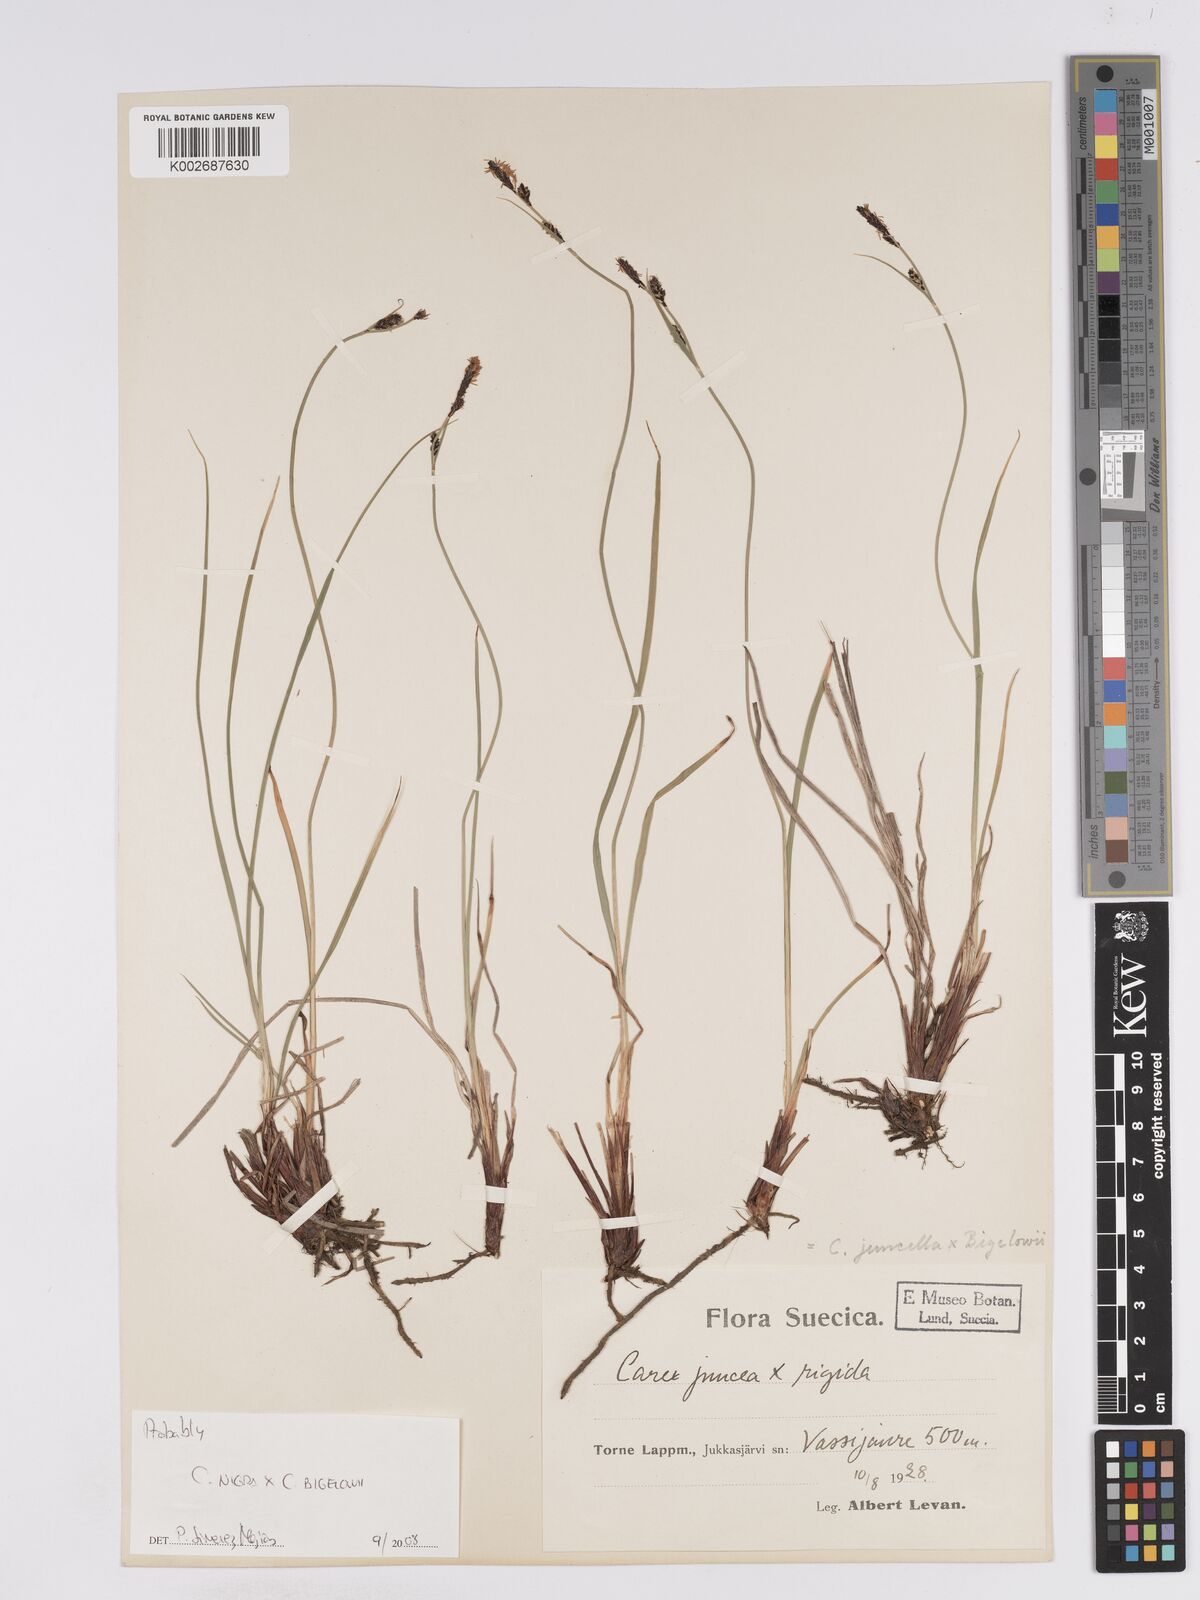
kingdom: Plantae
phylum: Tracheophyta
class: Liliopsida
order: Poales
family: Cyperaceae
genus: Carex
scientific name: Carex
